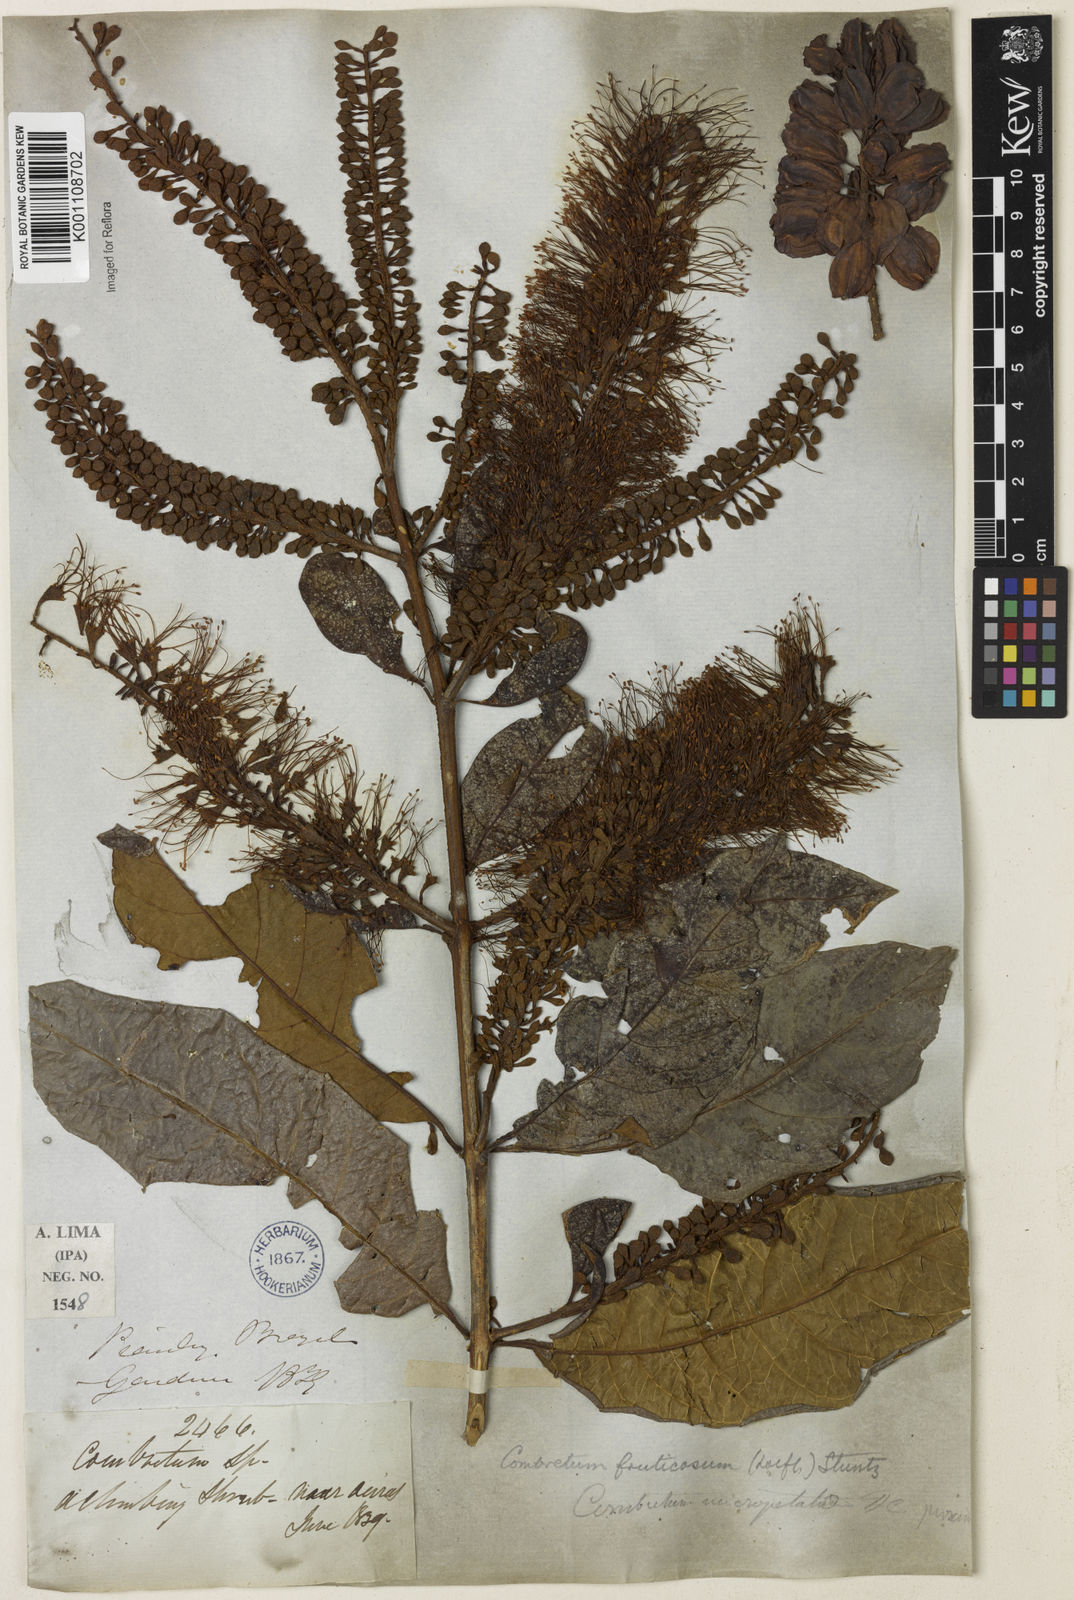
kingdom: Plantae
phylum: Tracheophyta
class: Magnoliopsida
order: Myrtales
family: Combretaceae
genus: Combretum
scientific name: Combretum fruticosum
